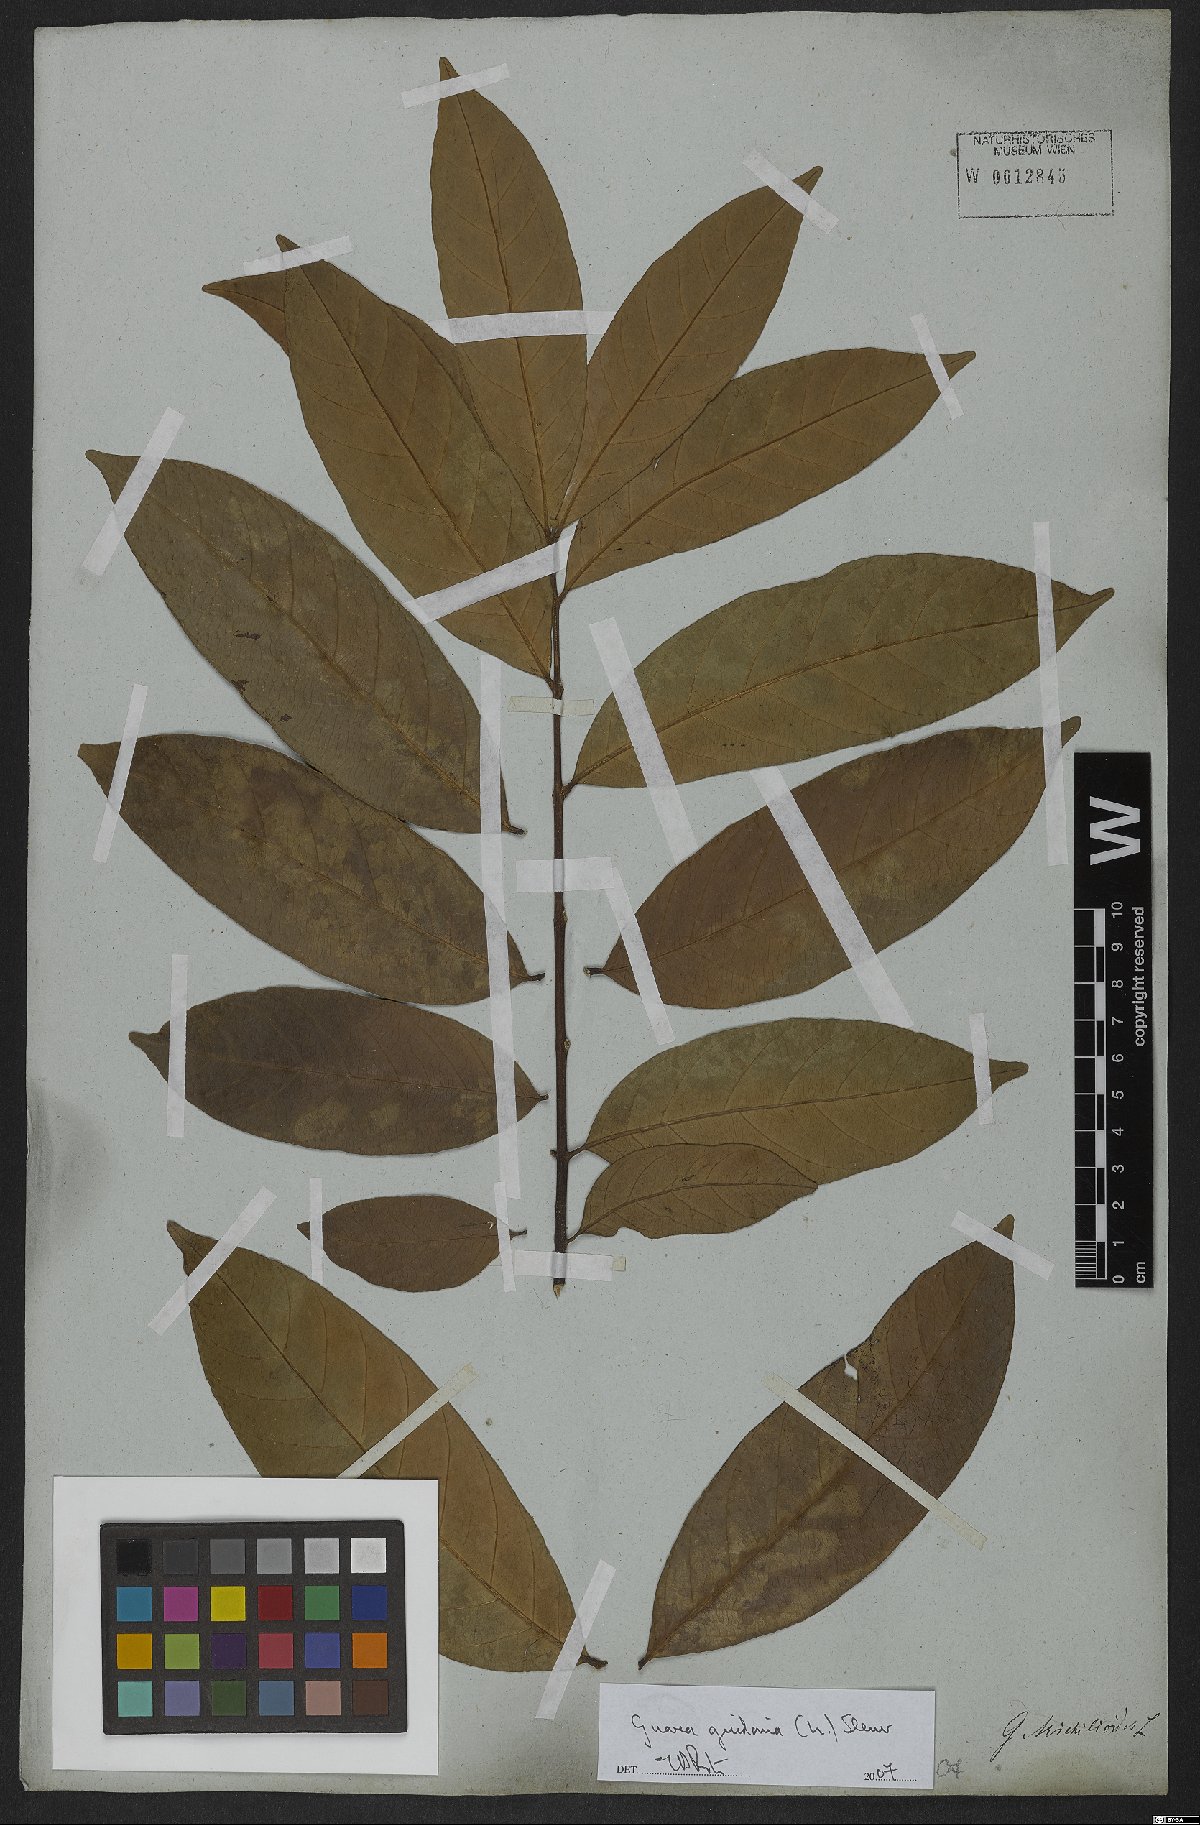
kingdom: Plantae
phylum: Tracheophyta
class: Magnoliopsida
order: Sapindales
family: Meliaceae
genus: Guarea
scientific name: Guarea guidonia
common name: American muskwood
